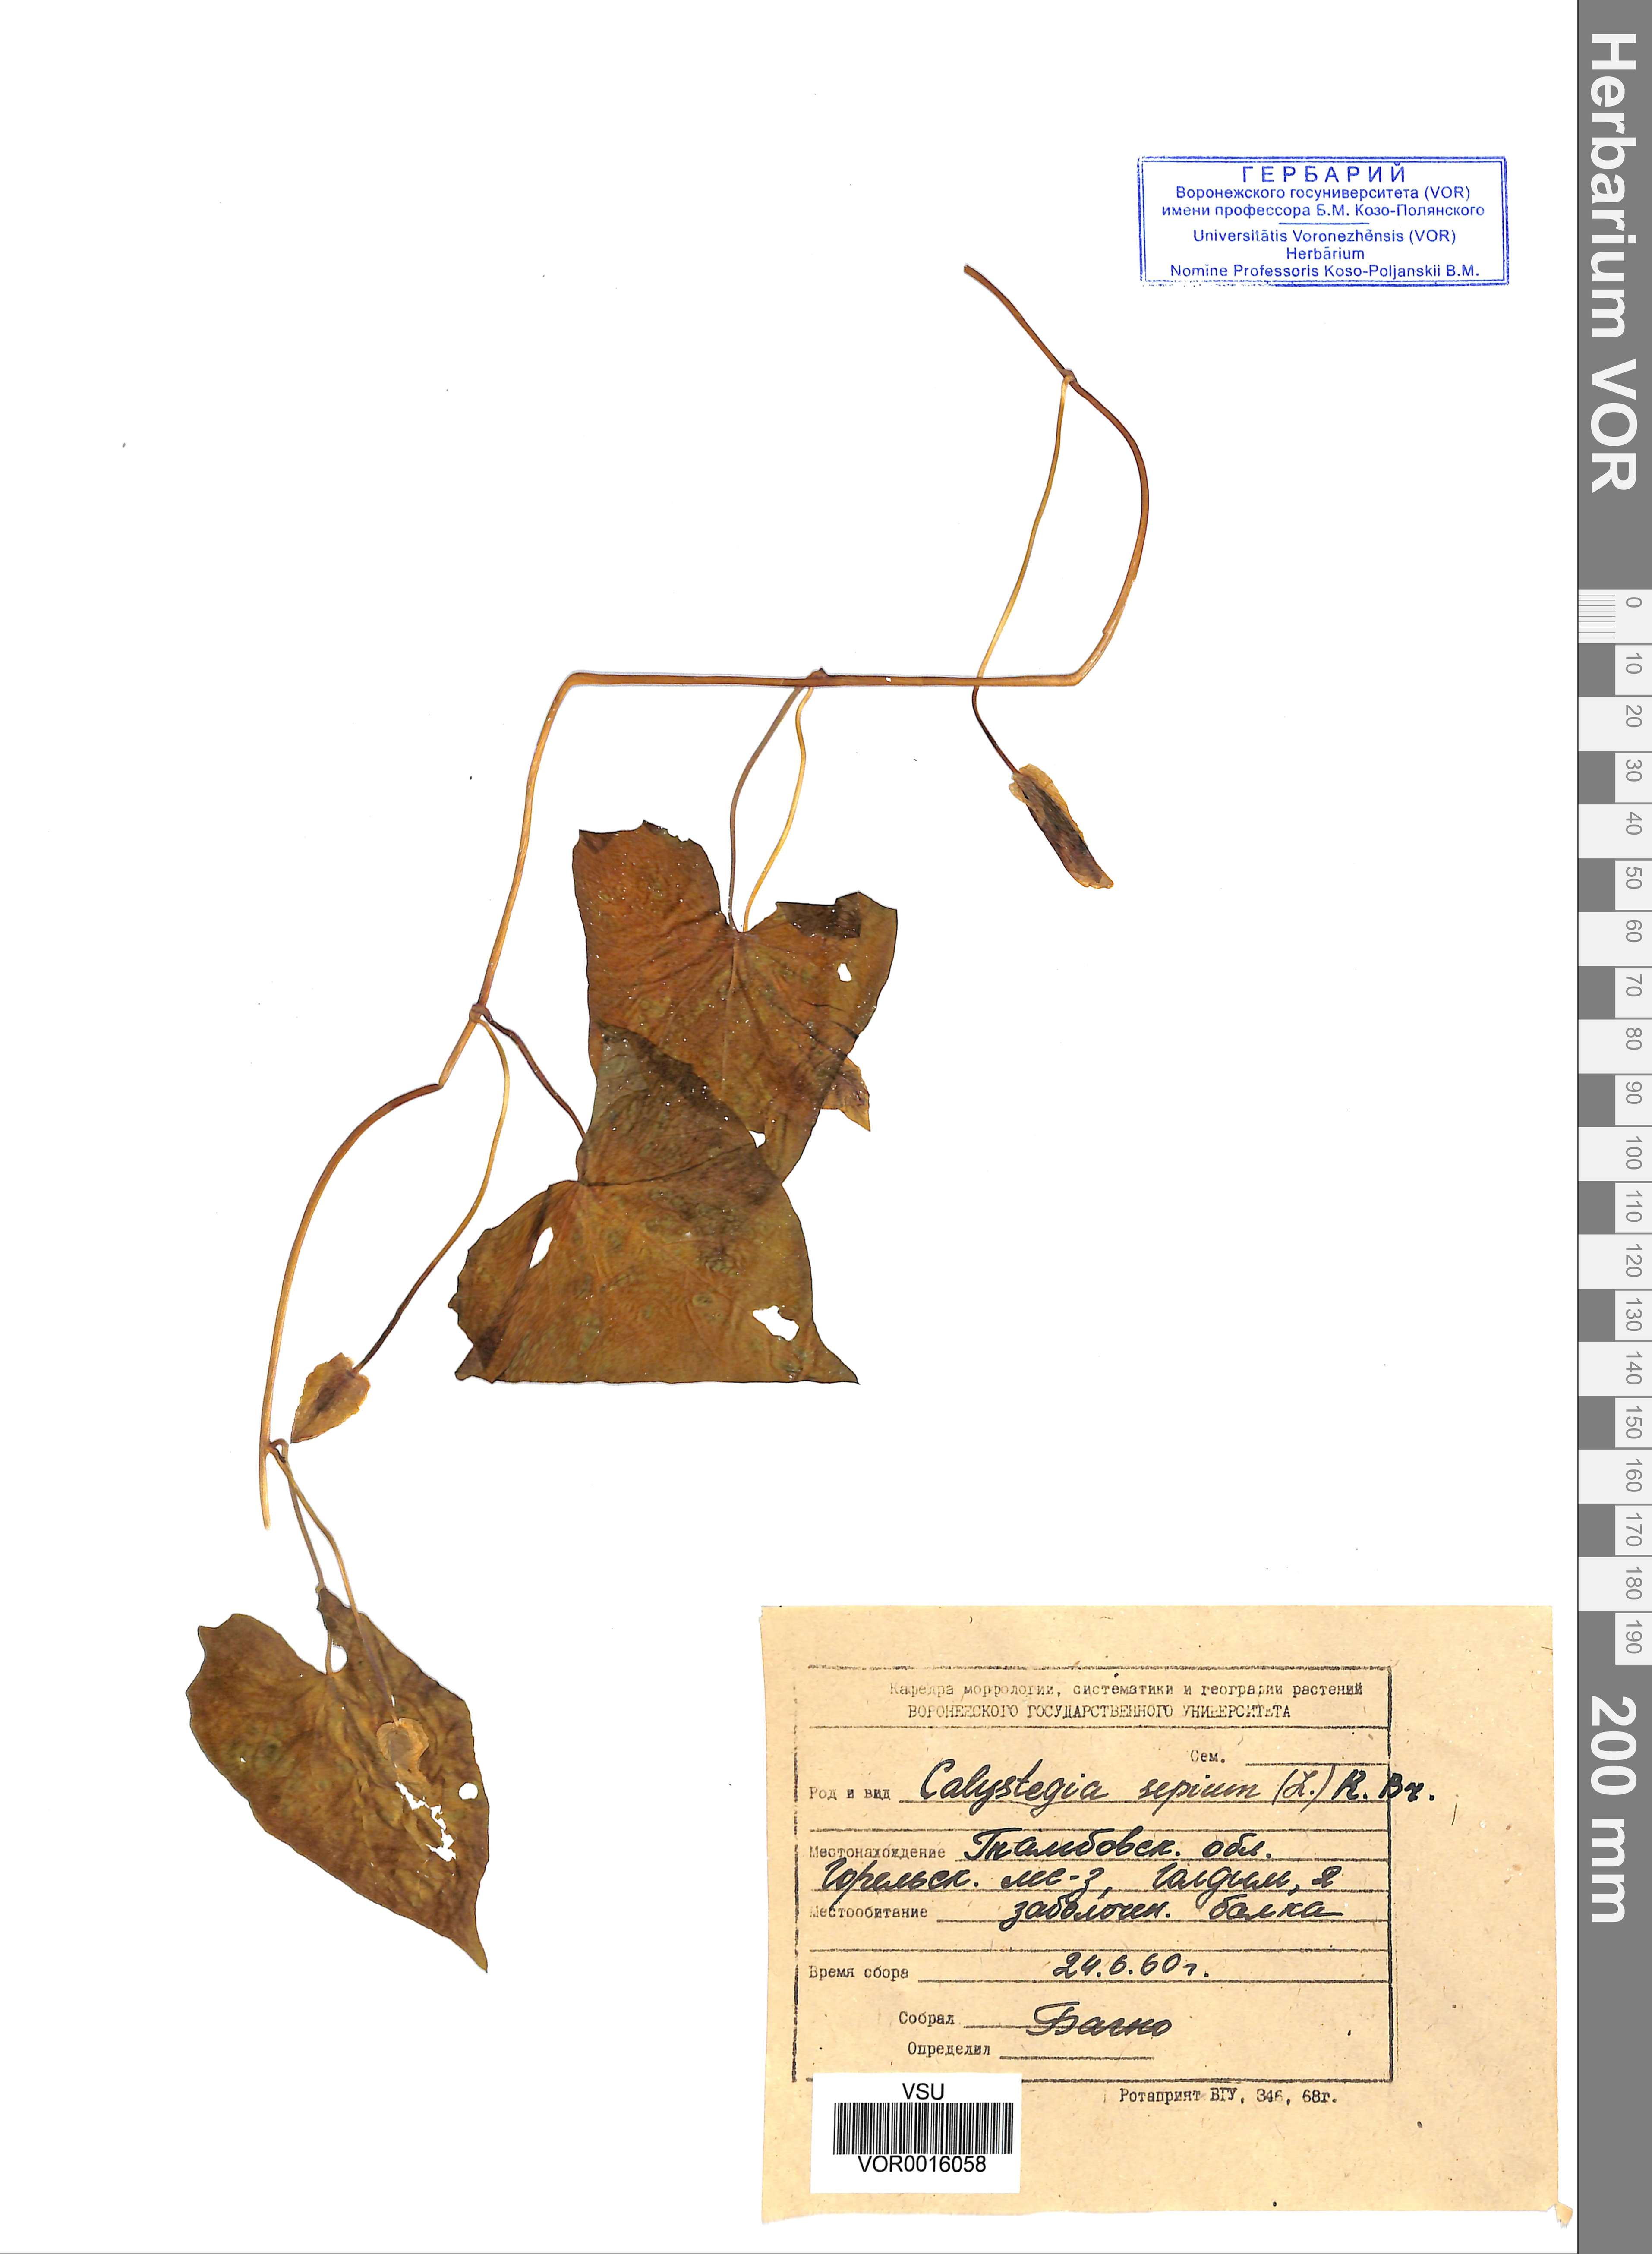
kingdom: Plantae
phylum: Tracheophyta
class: Magnoliopsida
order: Solanales
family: Convolvulaceae
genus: Calystegia
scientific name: Calystegia sepium
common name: Hedge bindweed
